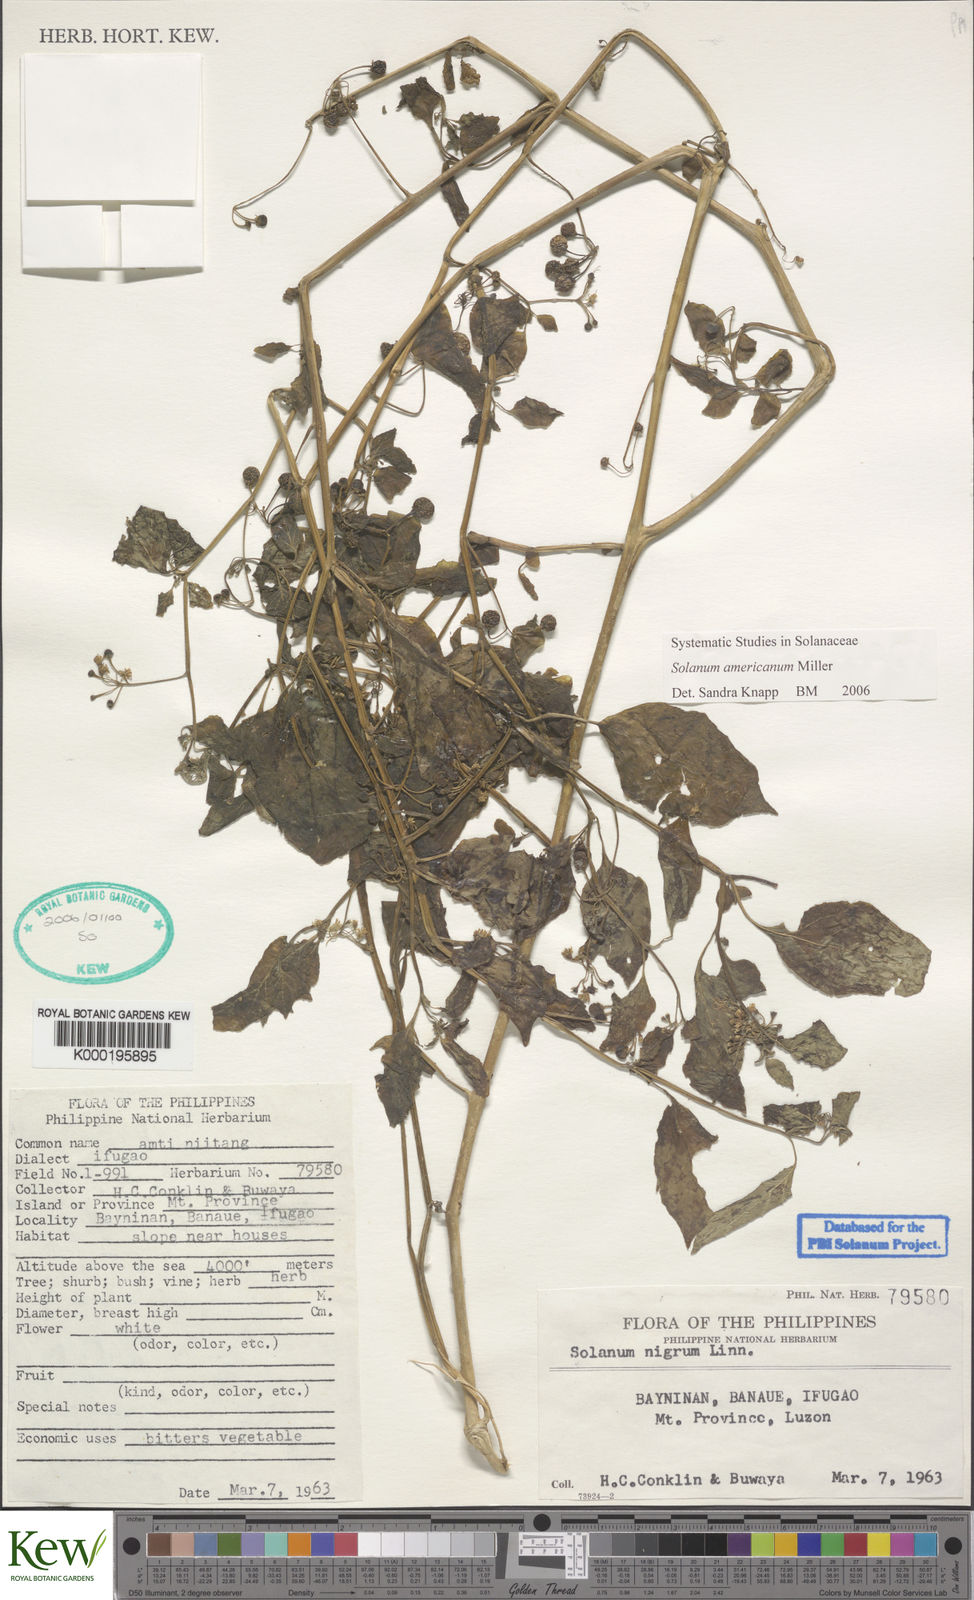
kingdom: Plantae
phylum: Tracheophyta
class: Magnoliopsida
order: Solanales
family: Solanaceae
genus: Solanum
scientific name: Solanum americanum
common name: American black nightshade
